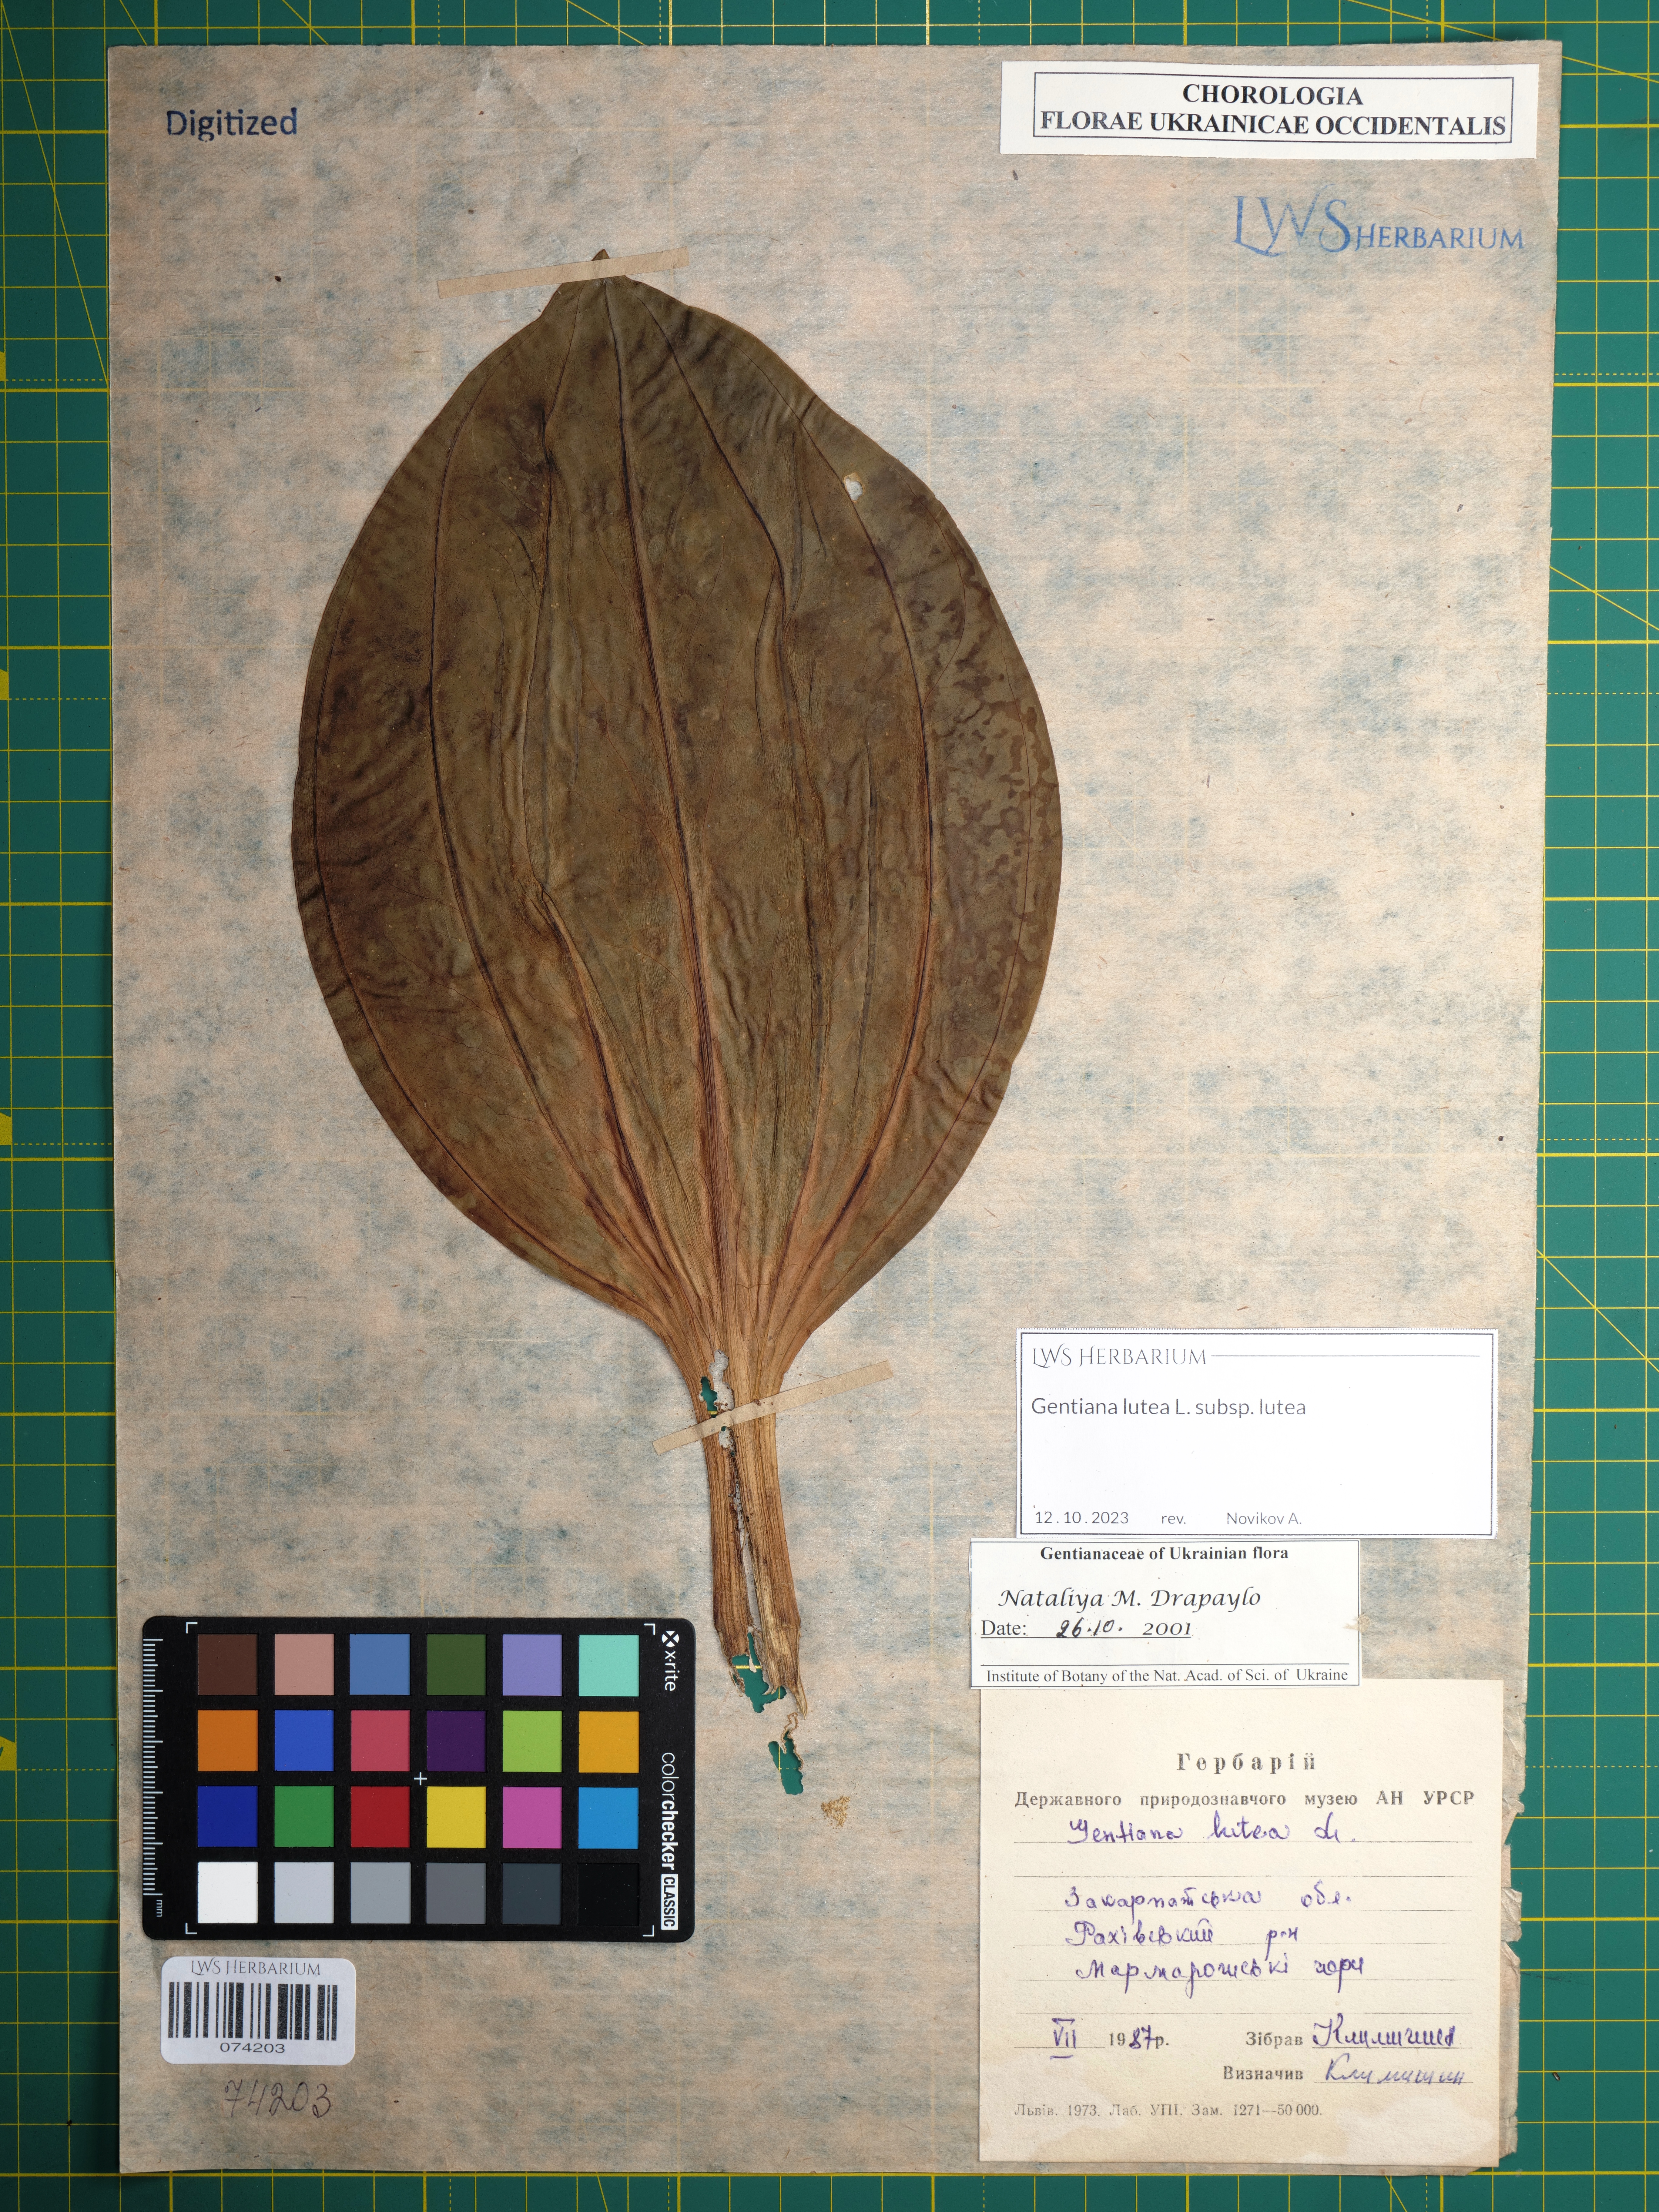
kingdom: Plantae
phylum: Tracheophyta
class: Magnoliopsida
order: Gentianales
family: Gentianaceae
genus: Gentiana
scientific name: Gentiana lutea
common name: Great yellow gentian
